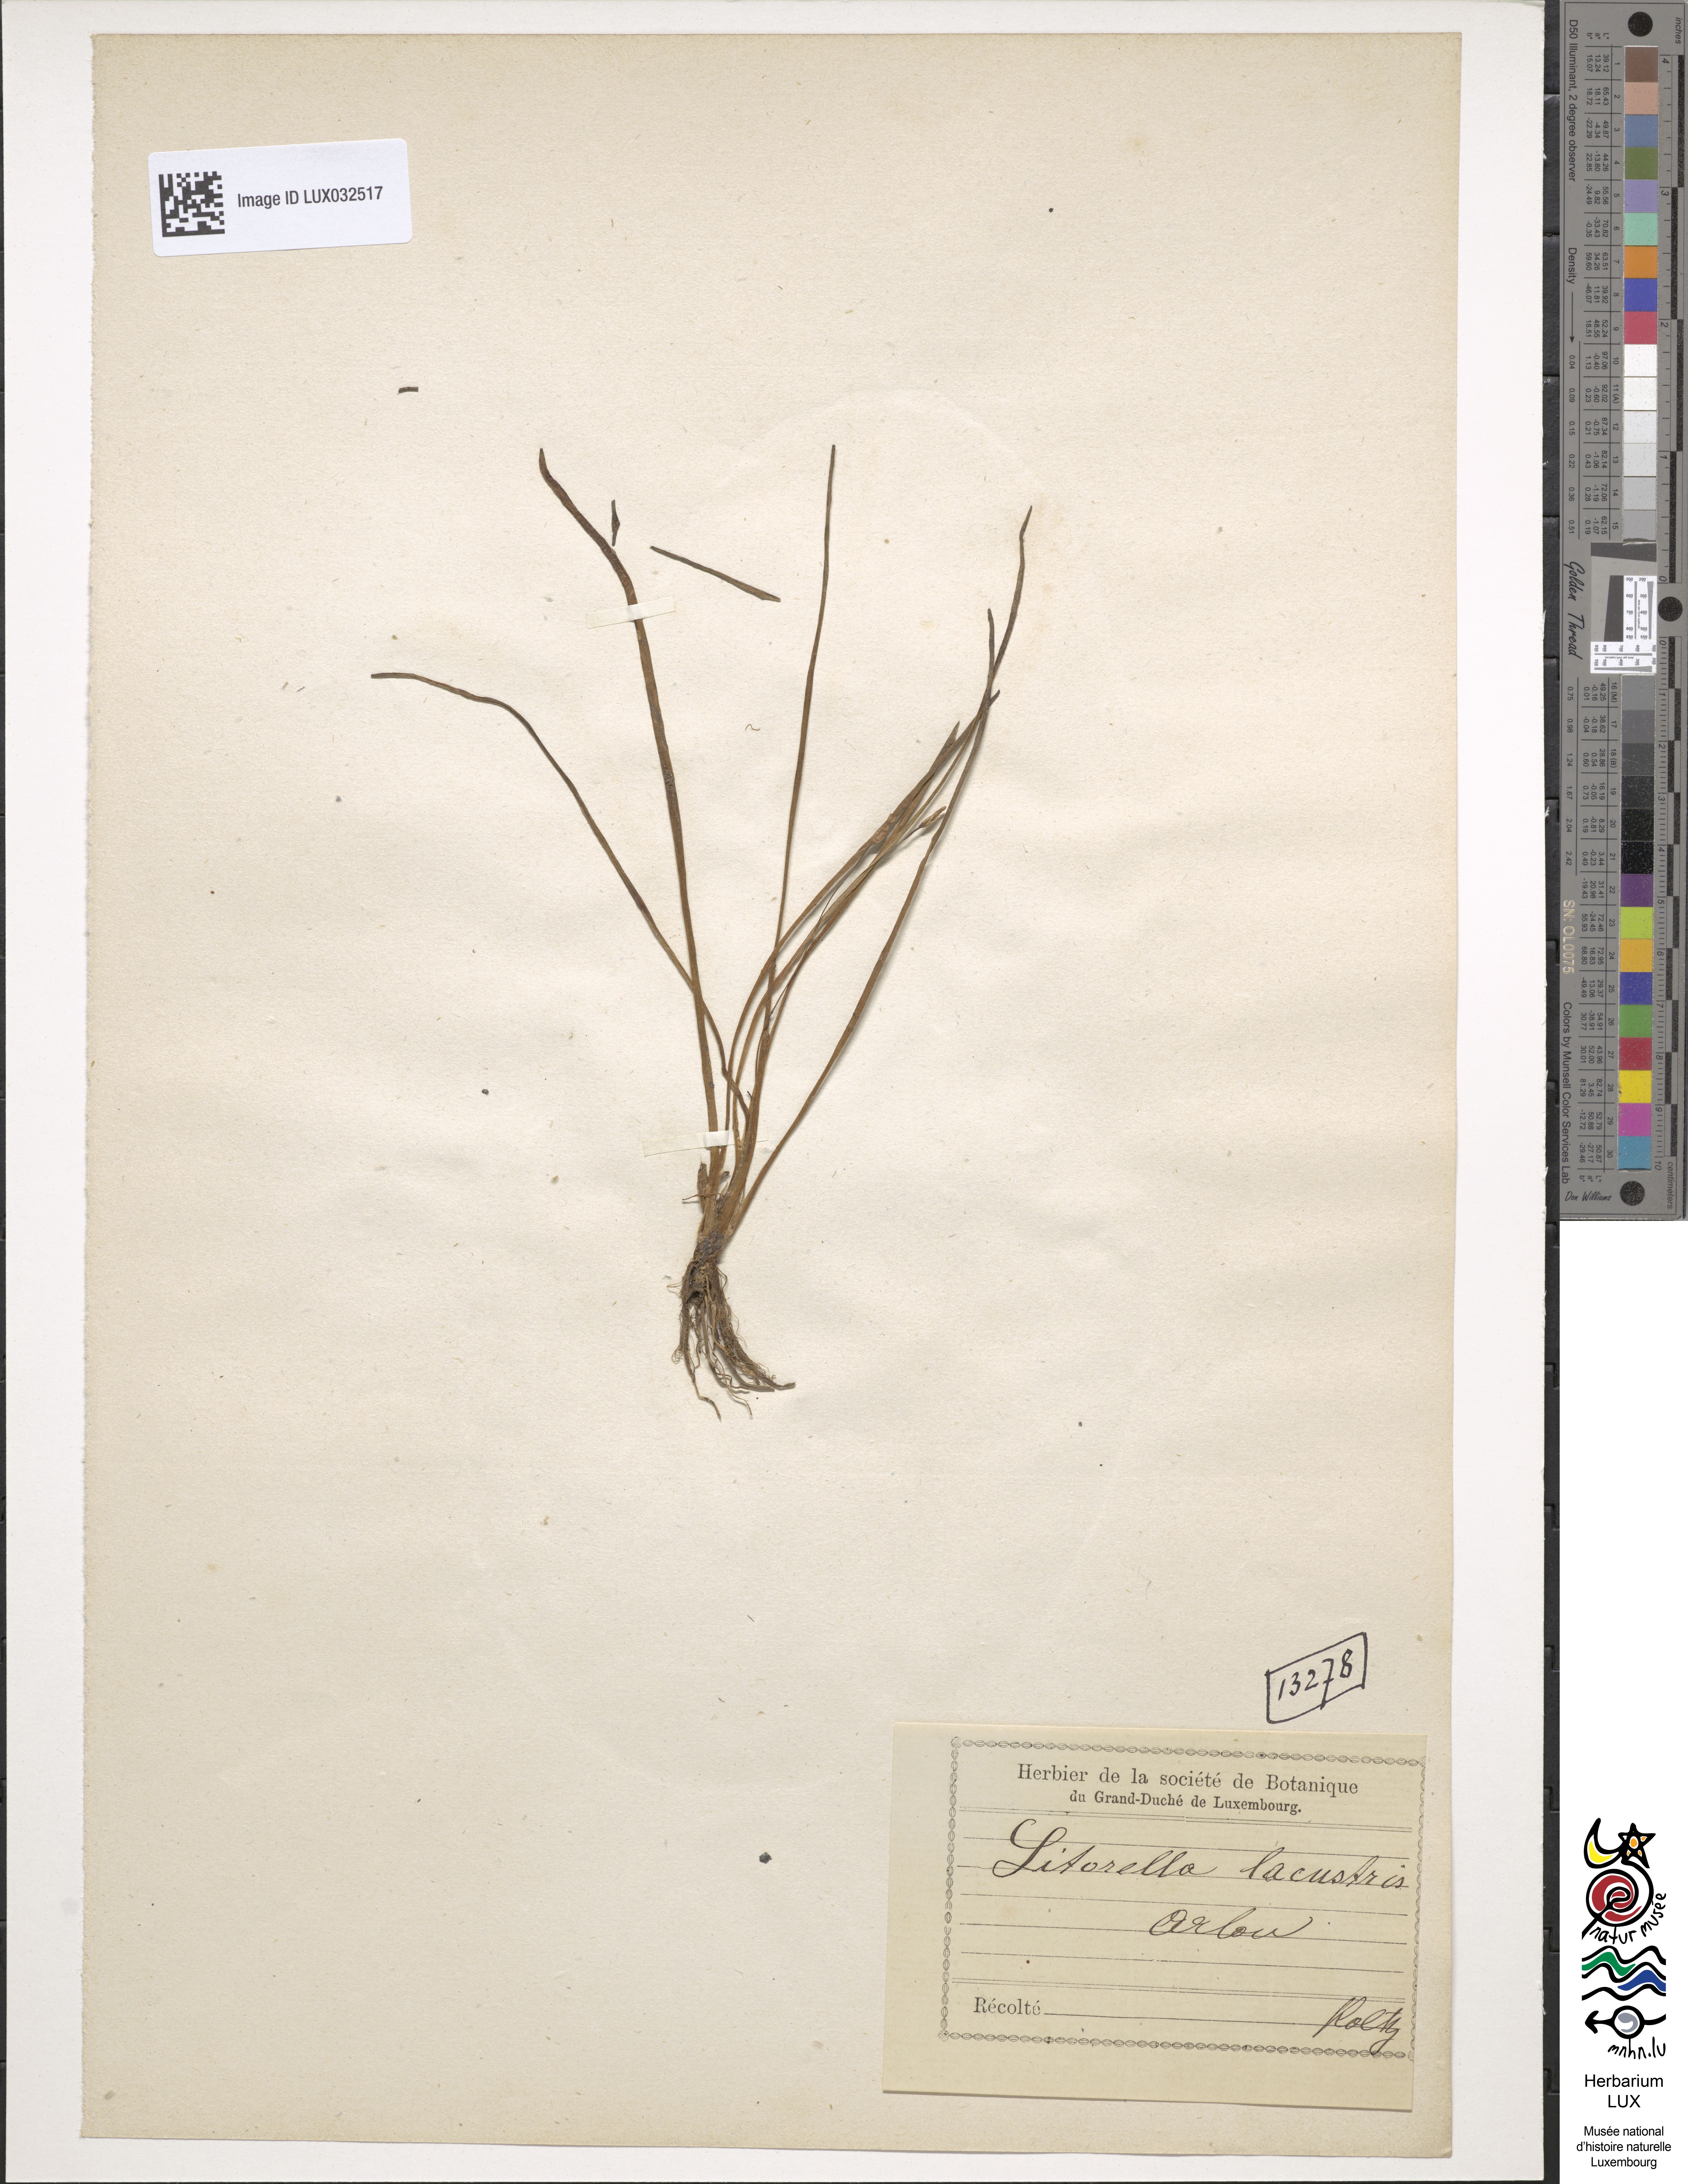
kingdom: Plantae
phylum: Tracheophyta
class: Magnoliopsida
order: Lamiales
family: Plantaginaceae
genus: Littorella
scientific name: Littorella uniflora
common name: Shoreweed
